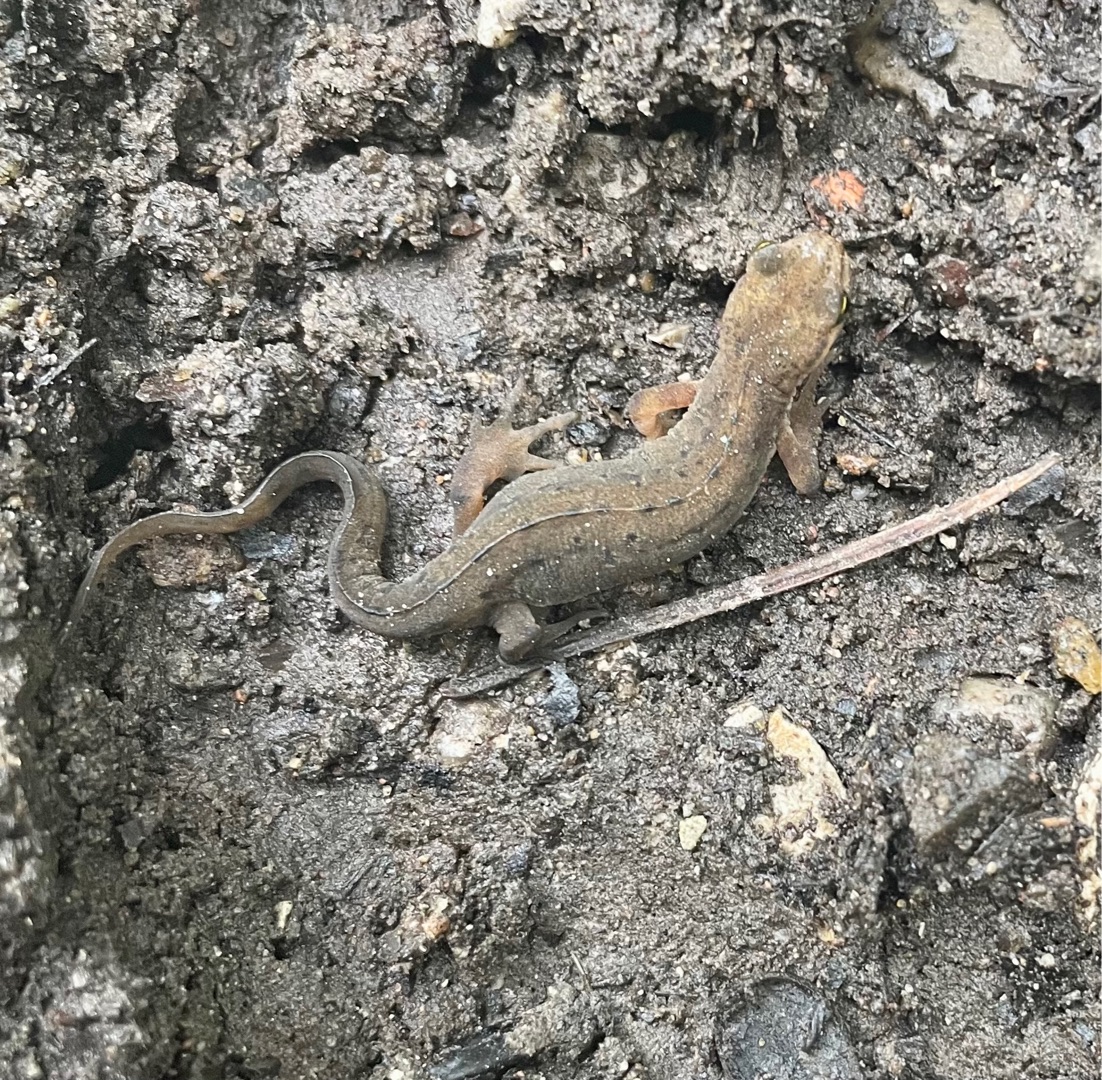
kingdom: Animalia
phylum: Chordata
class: Amphibia
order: Caudata
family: Salamandridae
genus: Lissotriton
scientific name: Lissotriton vulgaris
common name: Lille vandsalamander
